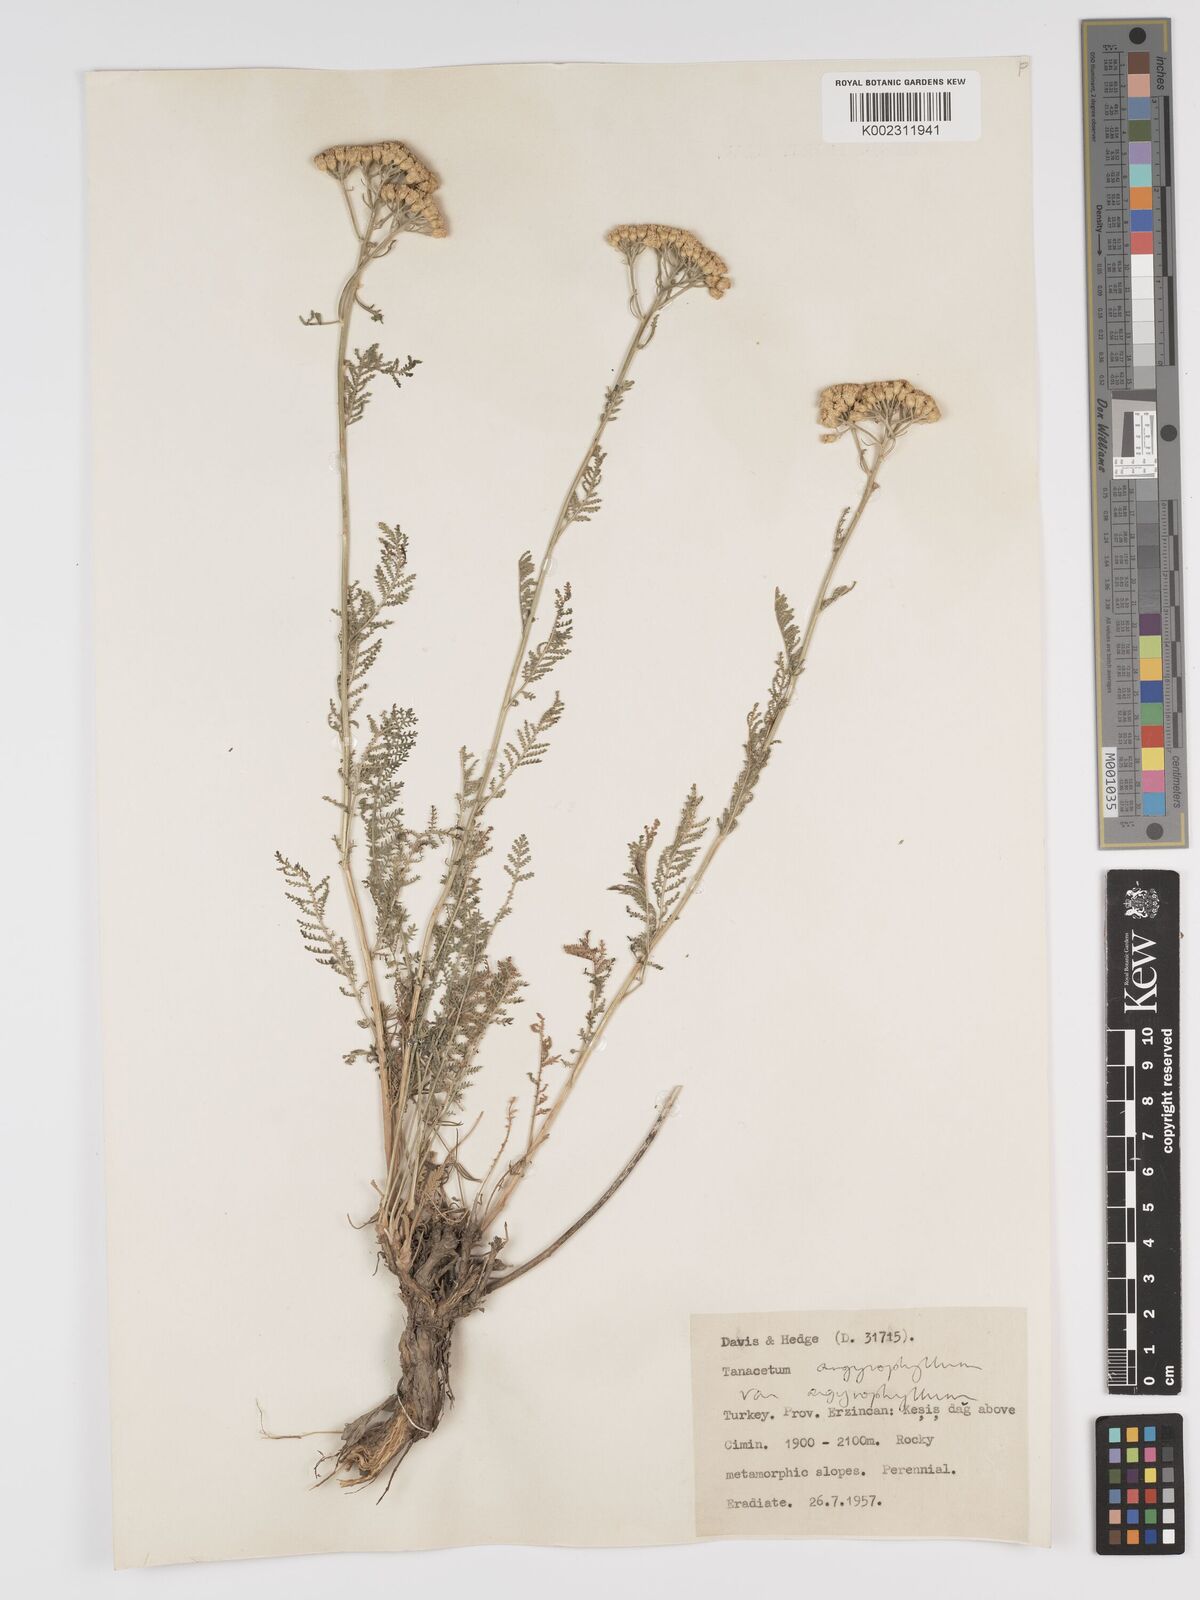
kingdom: Plantae
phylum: Tracheophyta
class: Magnoliopsida
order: Asterales
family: Asteraceae
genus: Tanacetum
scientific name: Tanacetum polycephalum
